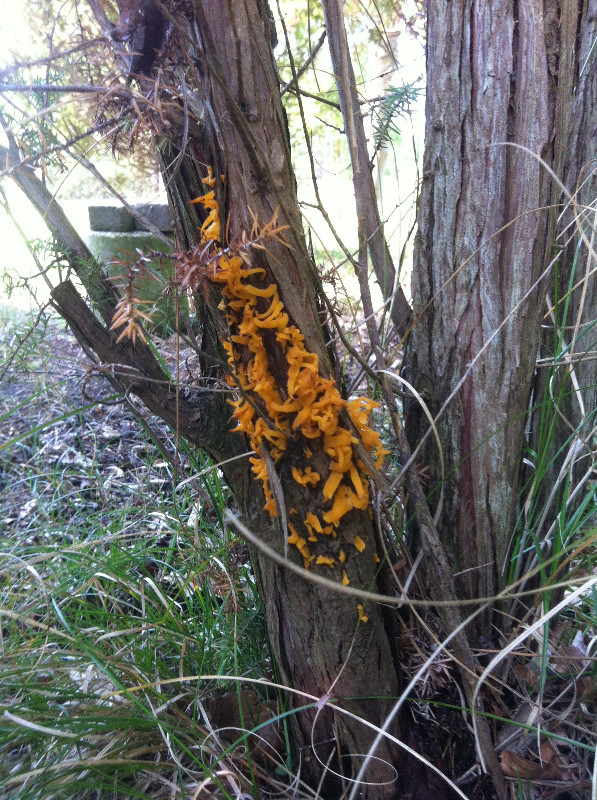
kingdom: Fungi
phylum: Basidiomycota
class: Pucciniomycetes
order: Pucciniales
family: Gymnosporangiaceae
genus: Gymnosporangium
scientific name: Gymnosporangium clavariiforme
